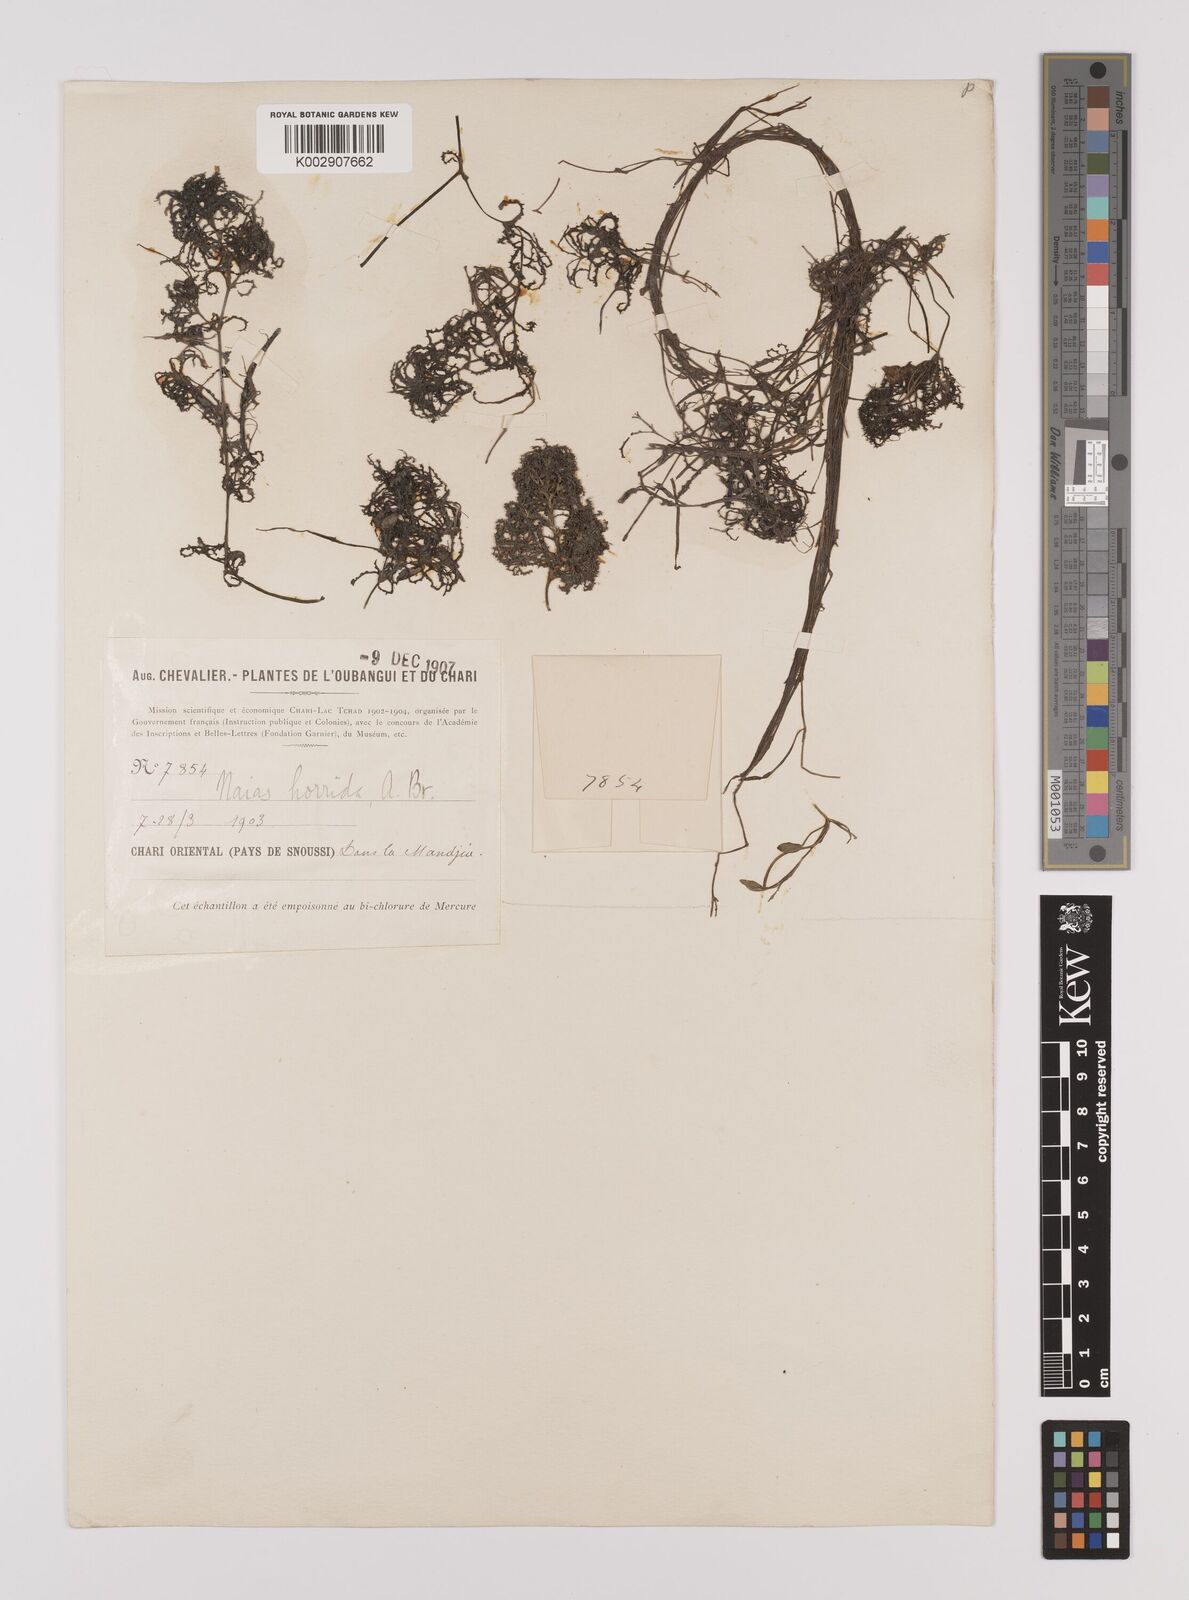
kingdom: Plantae
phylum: Tracheophyta
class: Liliopsida
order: Alismatales
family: Hydrocharitaceae
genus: Najas
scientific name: Najas pectinata
